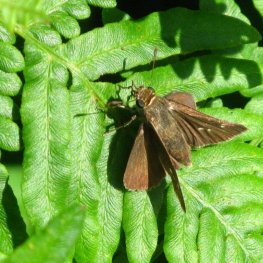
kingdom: Animalia
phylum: Arthropoda
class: Insecta
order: Lepidoptera
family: Hesperiidae
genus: Euphyes
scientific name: Euphyes vestris
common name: Dun Skipper
